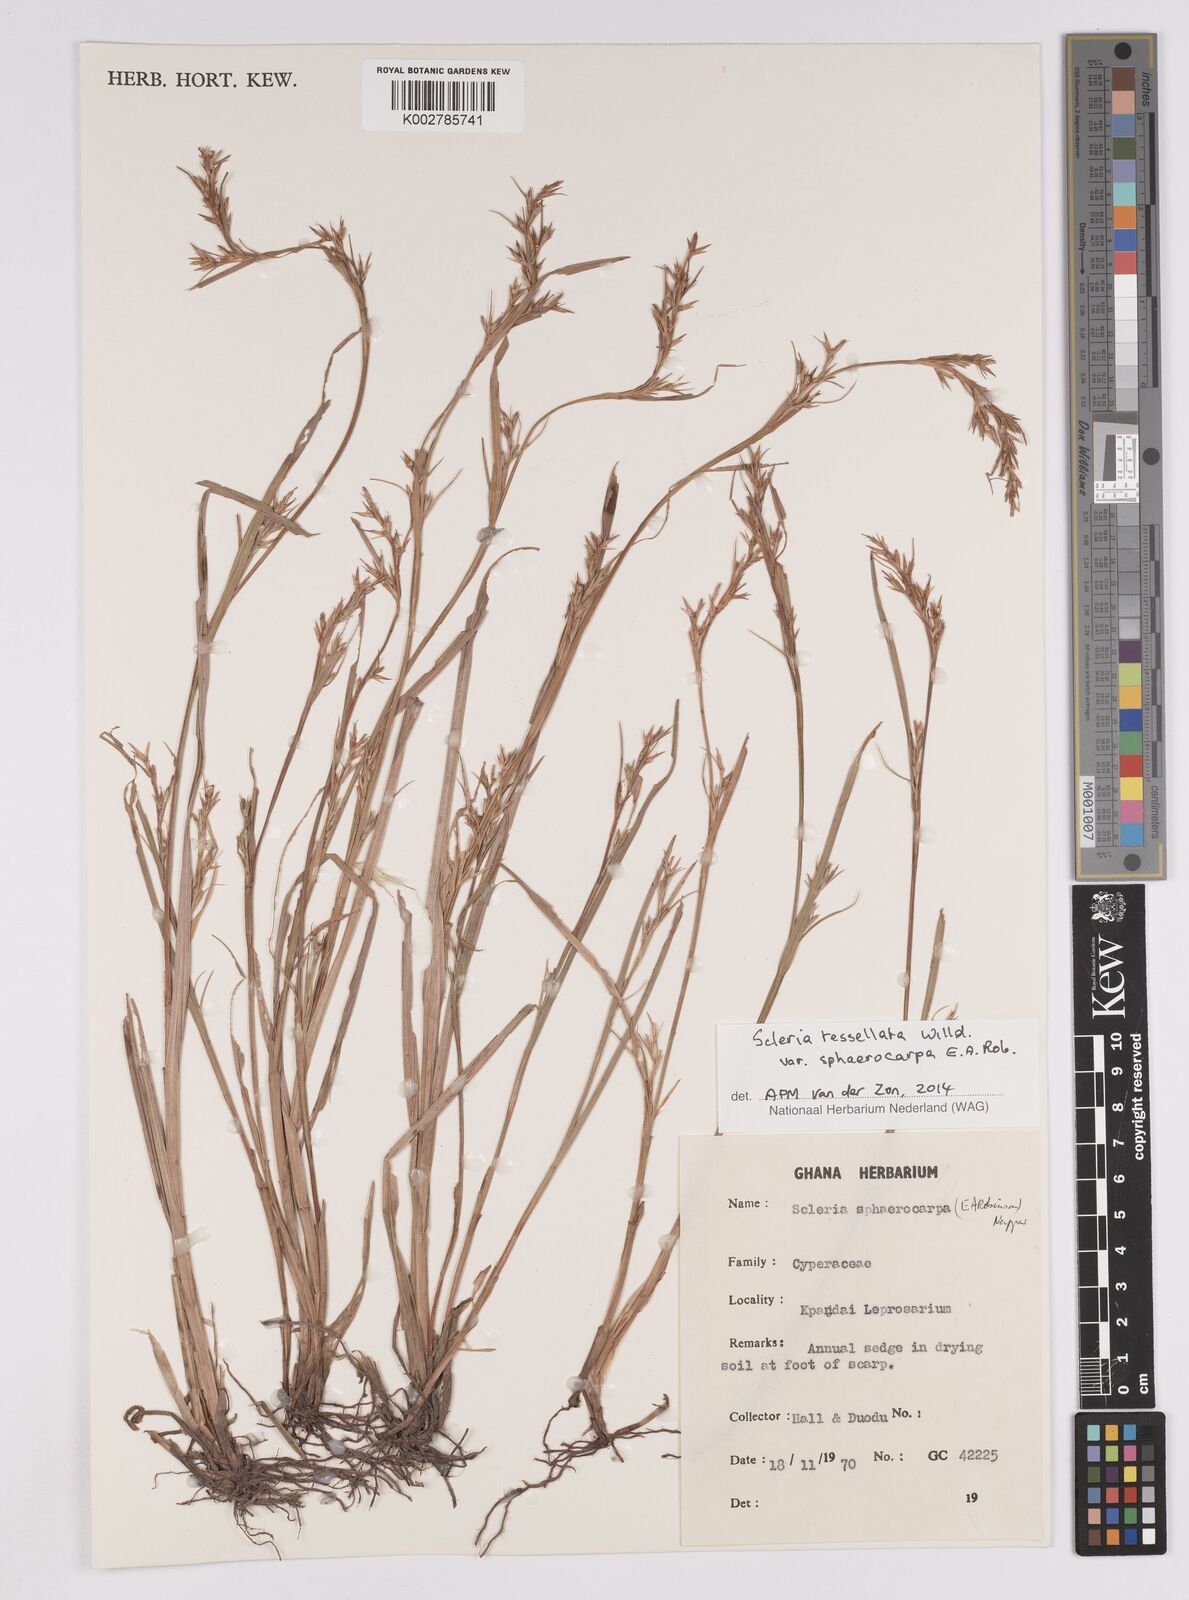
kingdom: Plantae
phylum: Tracheophyta
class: Liliopsida
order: Poales
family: Cyperaceae
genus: Scleria
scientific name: Scleria tessellata
